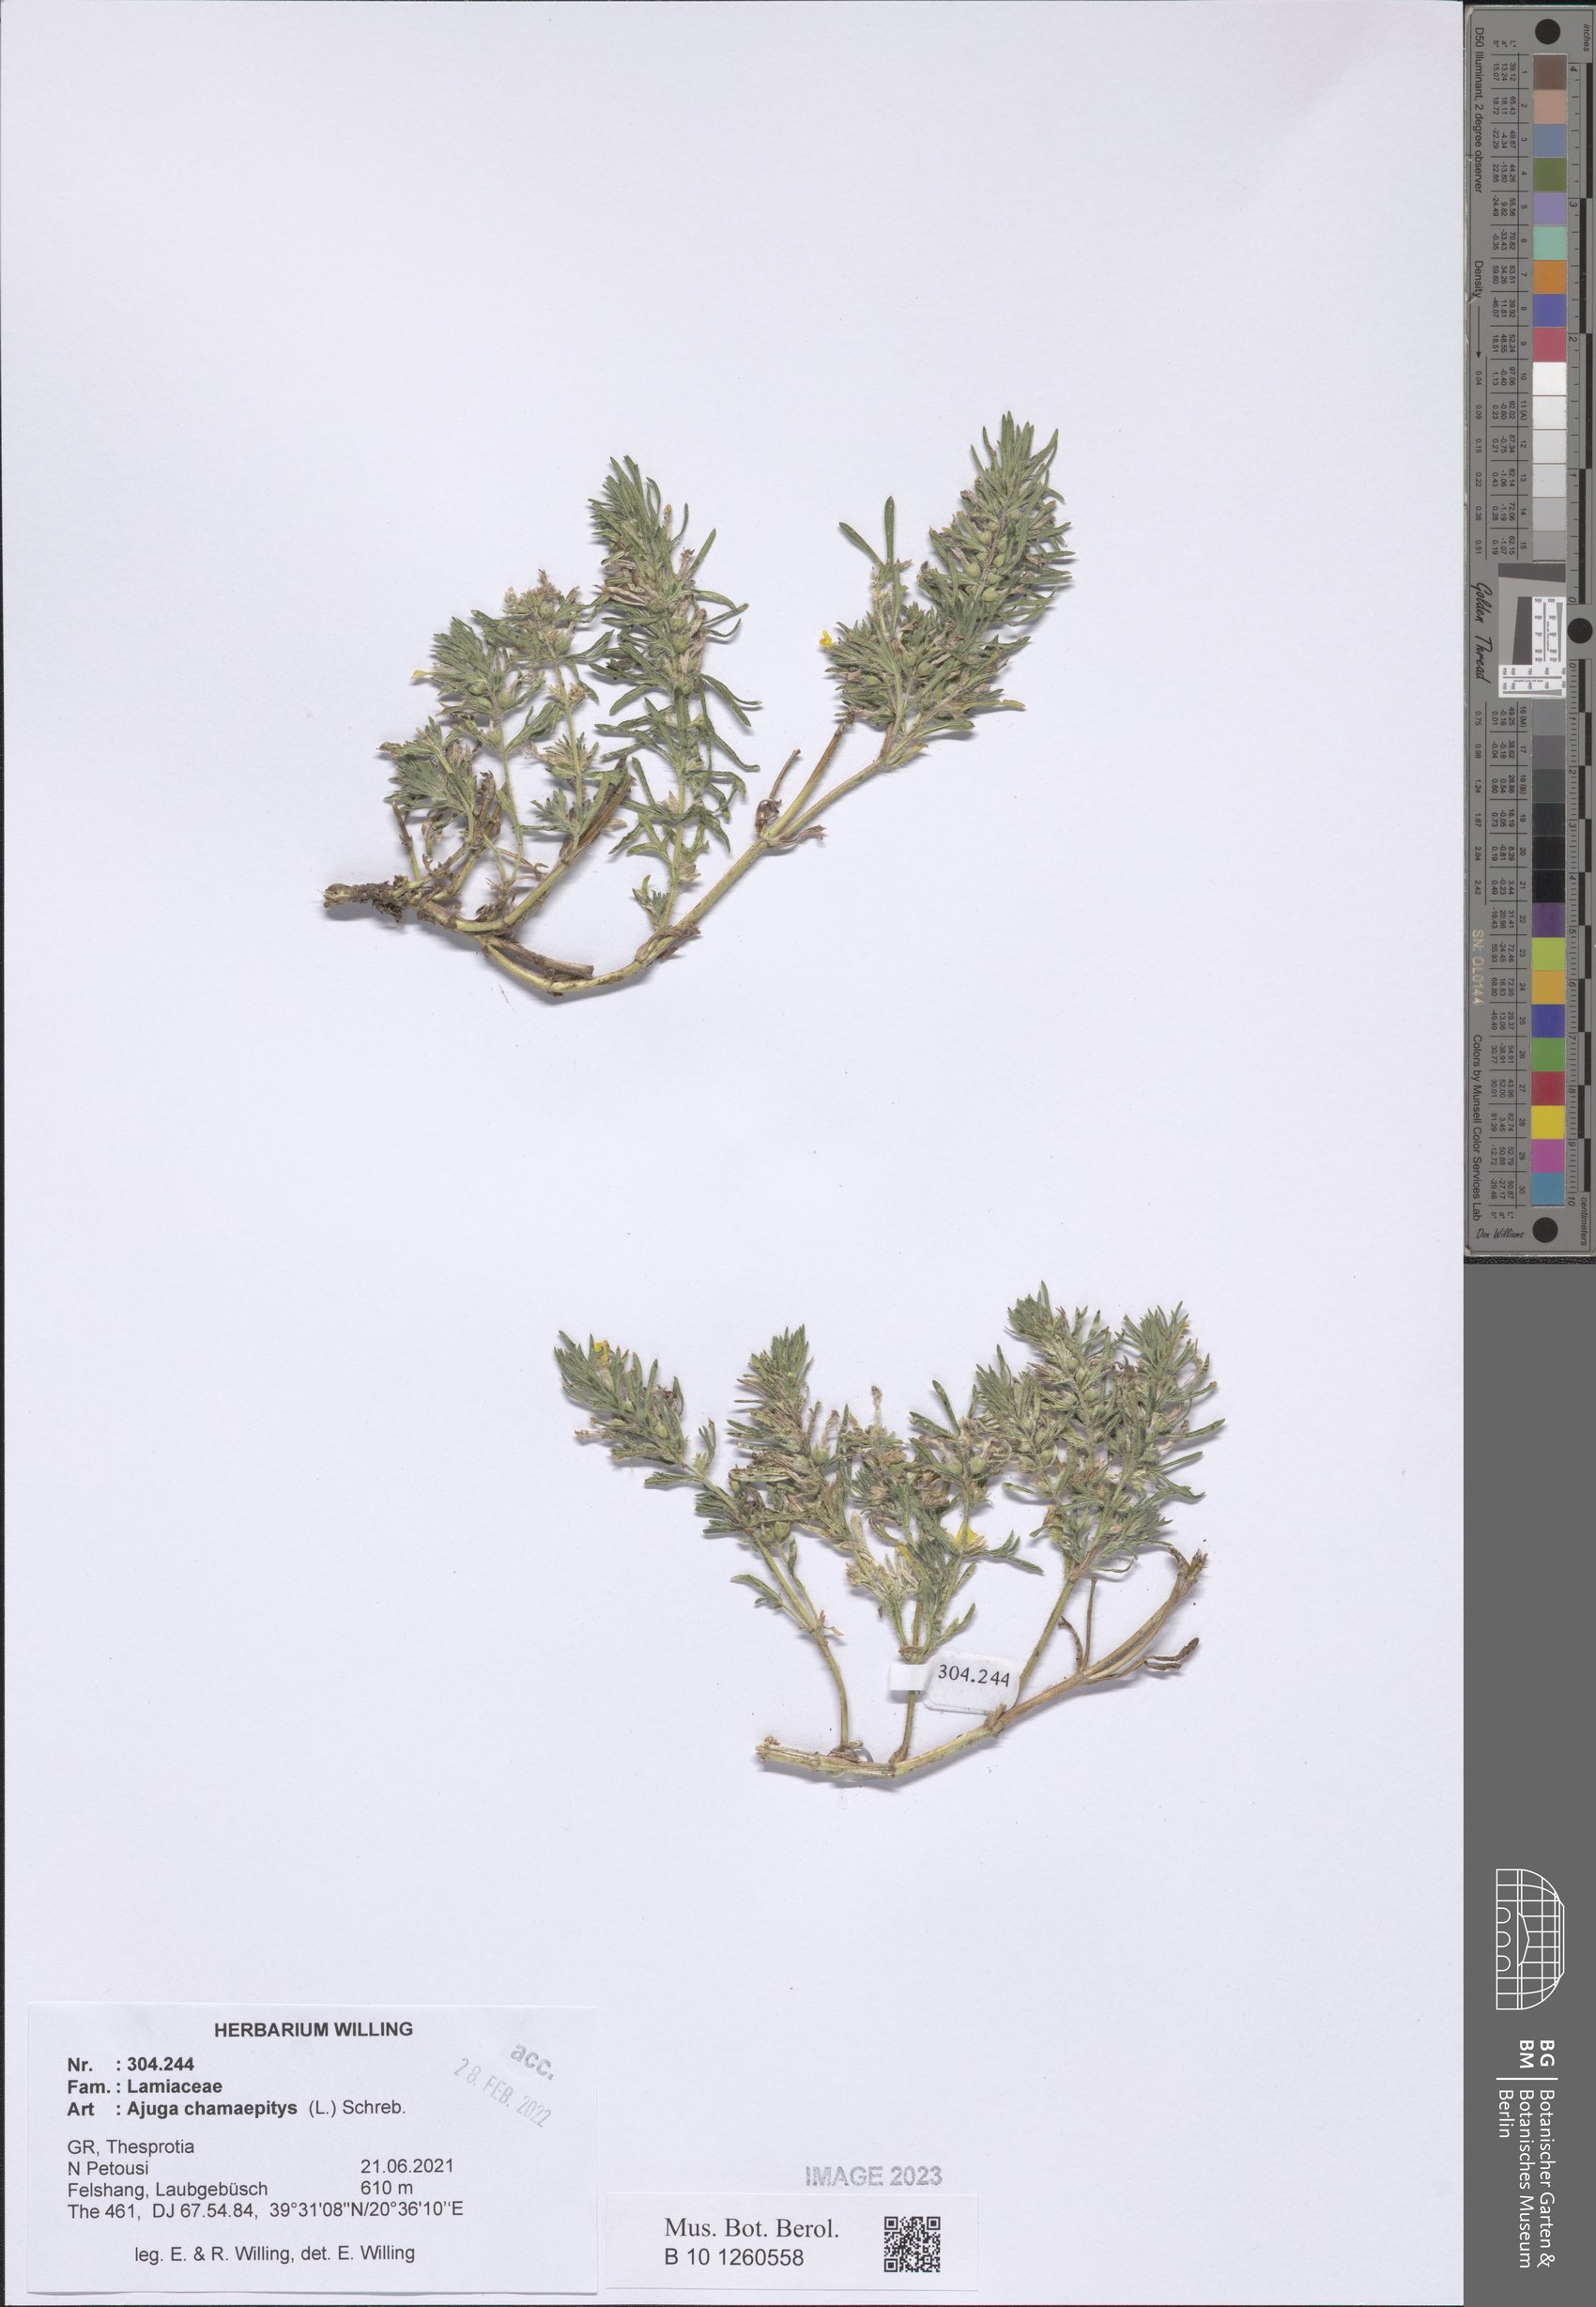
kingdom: Plantae
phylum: Tracheophyta
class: Magnoliopsida
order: Lamiales
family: Lamiaceae
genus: Ajuga
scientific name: Ajuga chamaepitys
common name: Ground-pine
